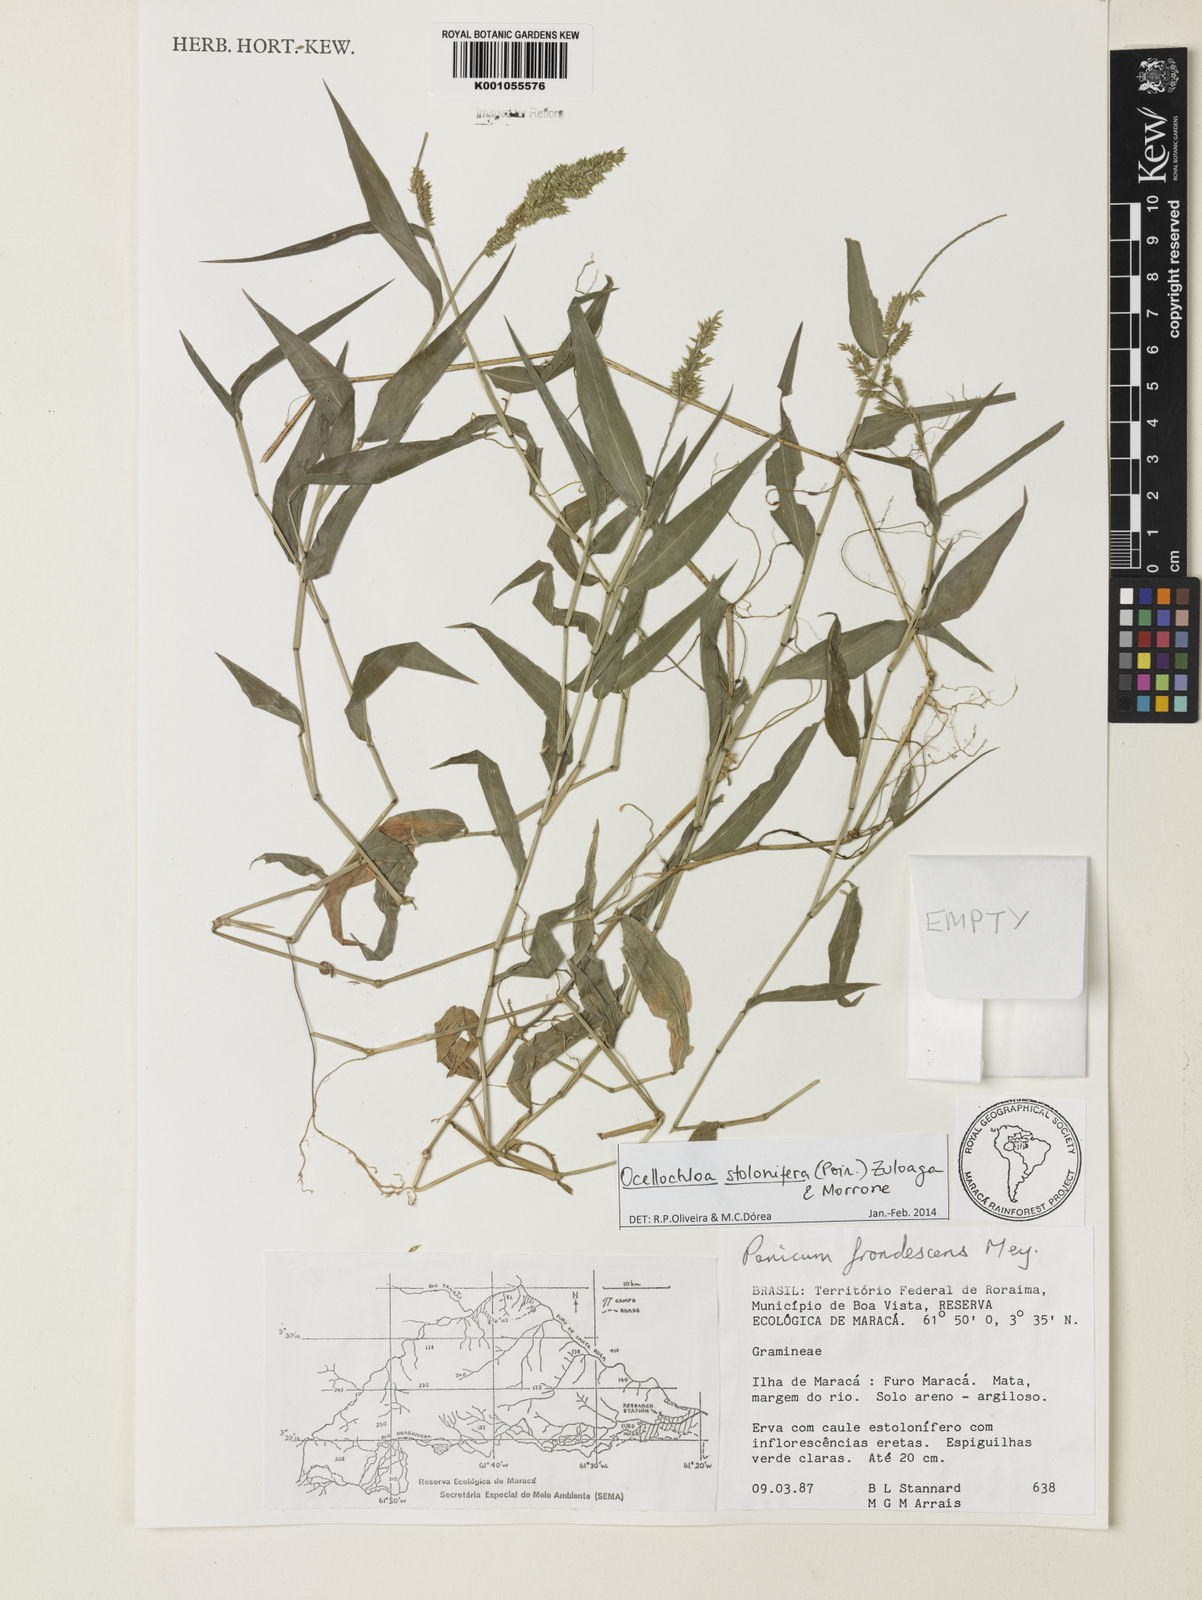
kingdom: Plantae
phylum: Tracheophyta
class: Liliopsida
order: Poales
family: Poaceae
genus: Ocellochloa
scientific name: Ocellochloa stolonifera
